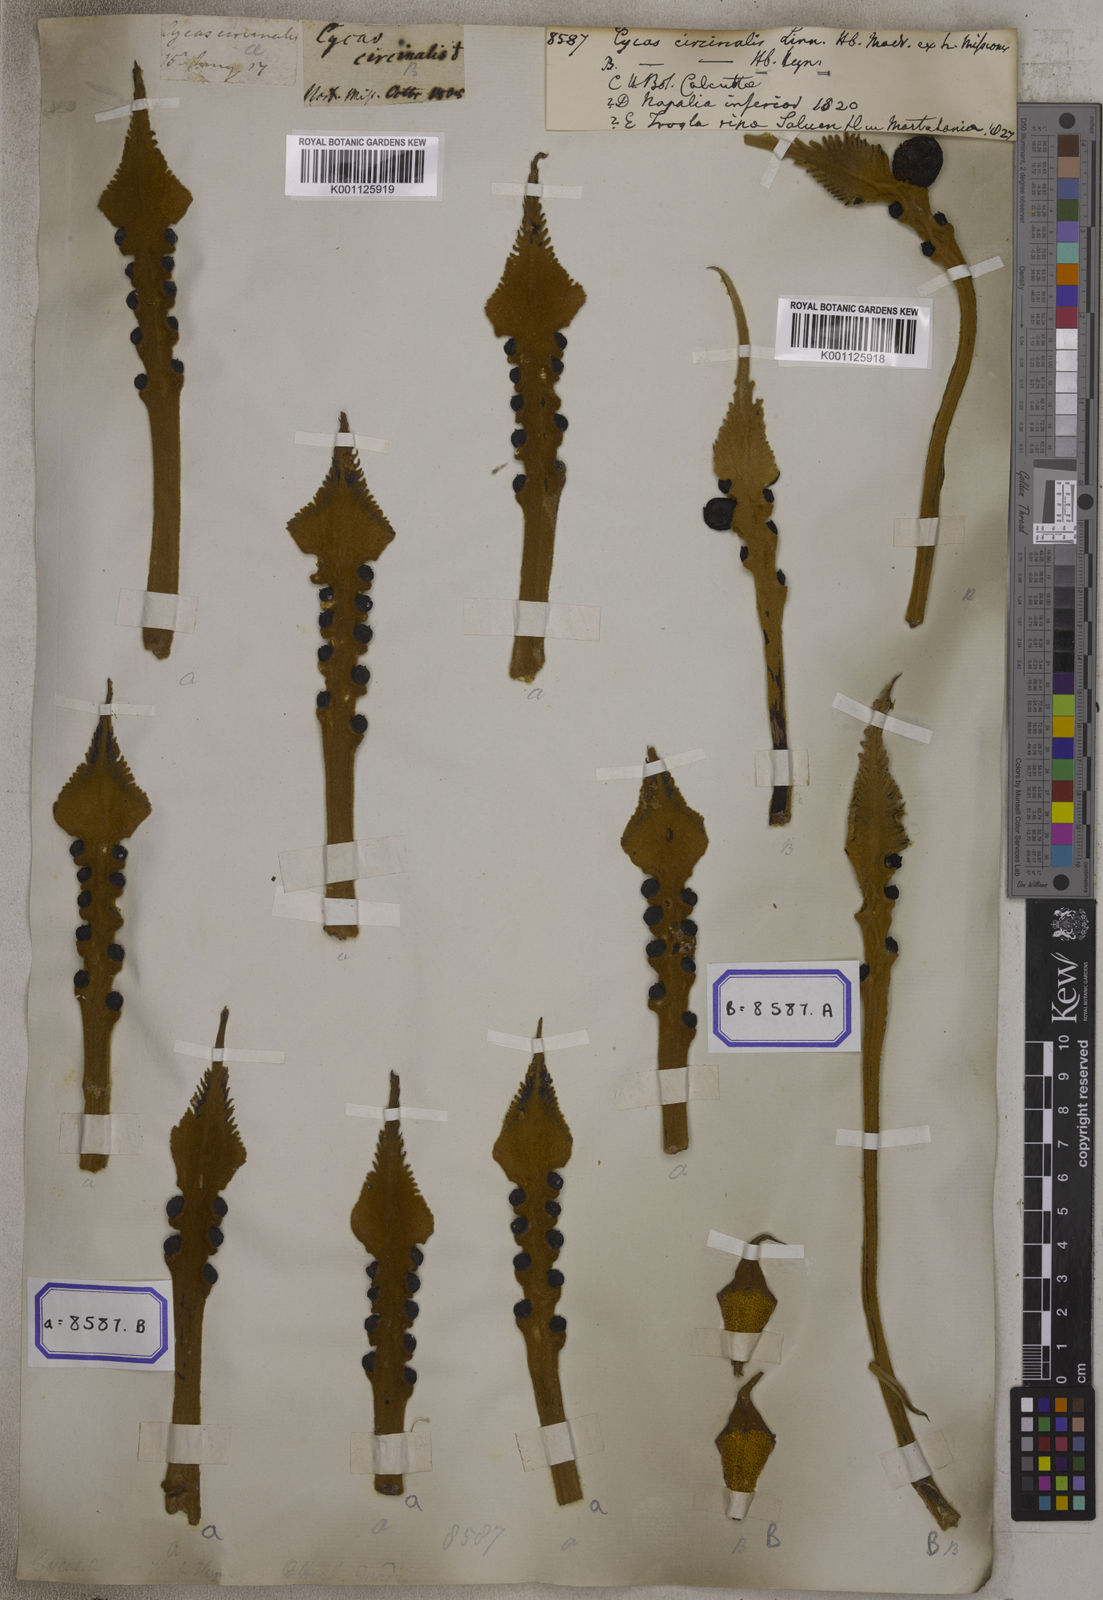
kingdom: Plantae
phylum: Tracheophyta
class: Cycadopsida
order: Cycadales
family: Cycadaceae
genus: Cycas
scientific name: Cycas circinalis
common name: Queen sago
